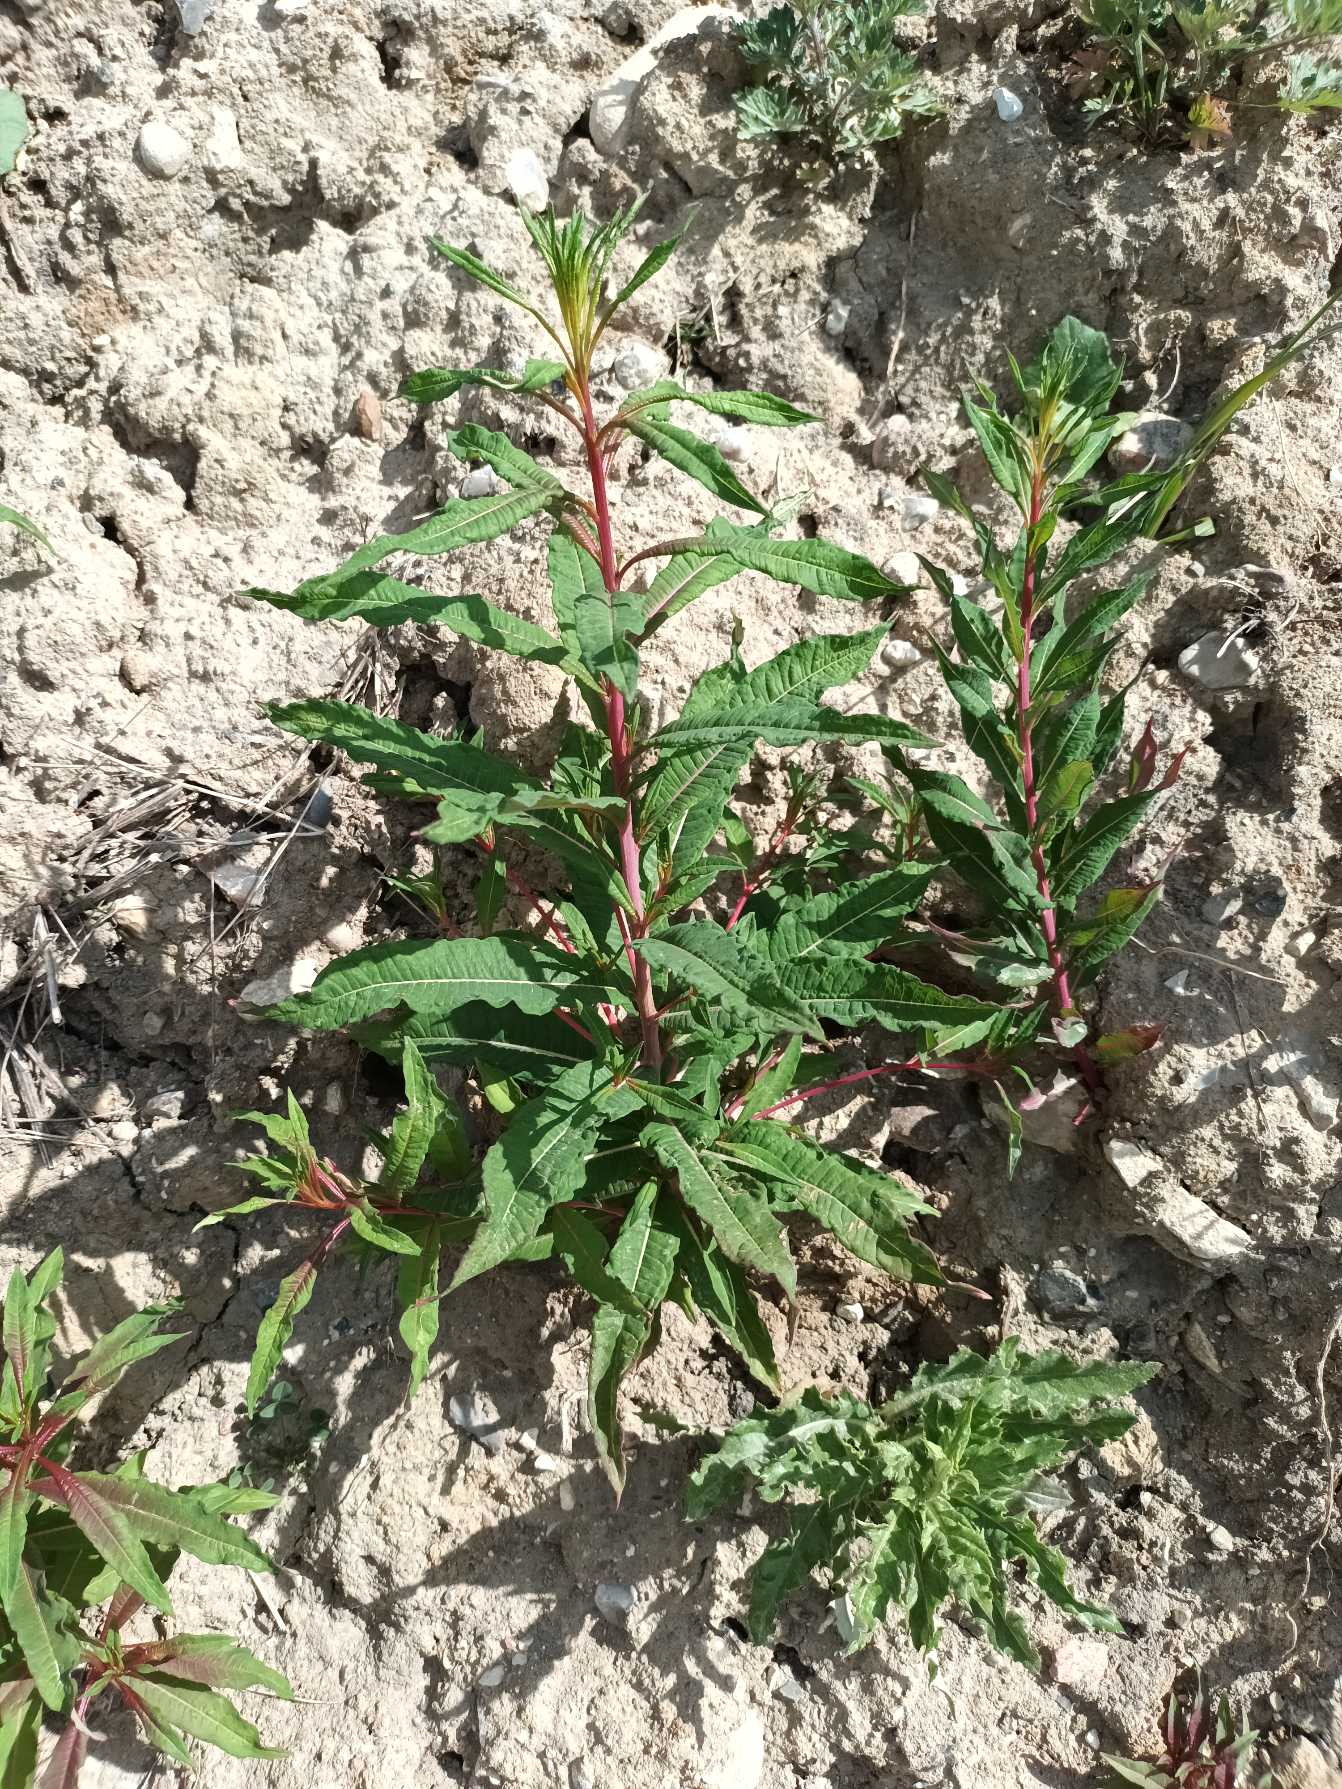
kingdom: Plantae
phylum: Tracheophyta
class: Magnoliopsida
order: Myrtales
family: Onagraceae
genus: Chamaenerion
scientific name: Chamaenerion angustifolium
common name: Gederams
